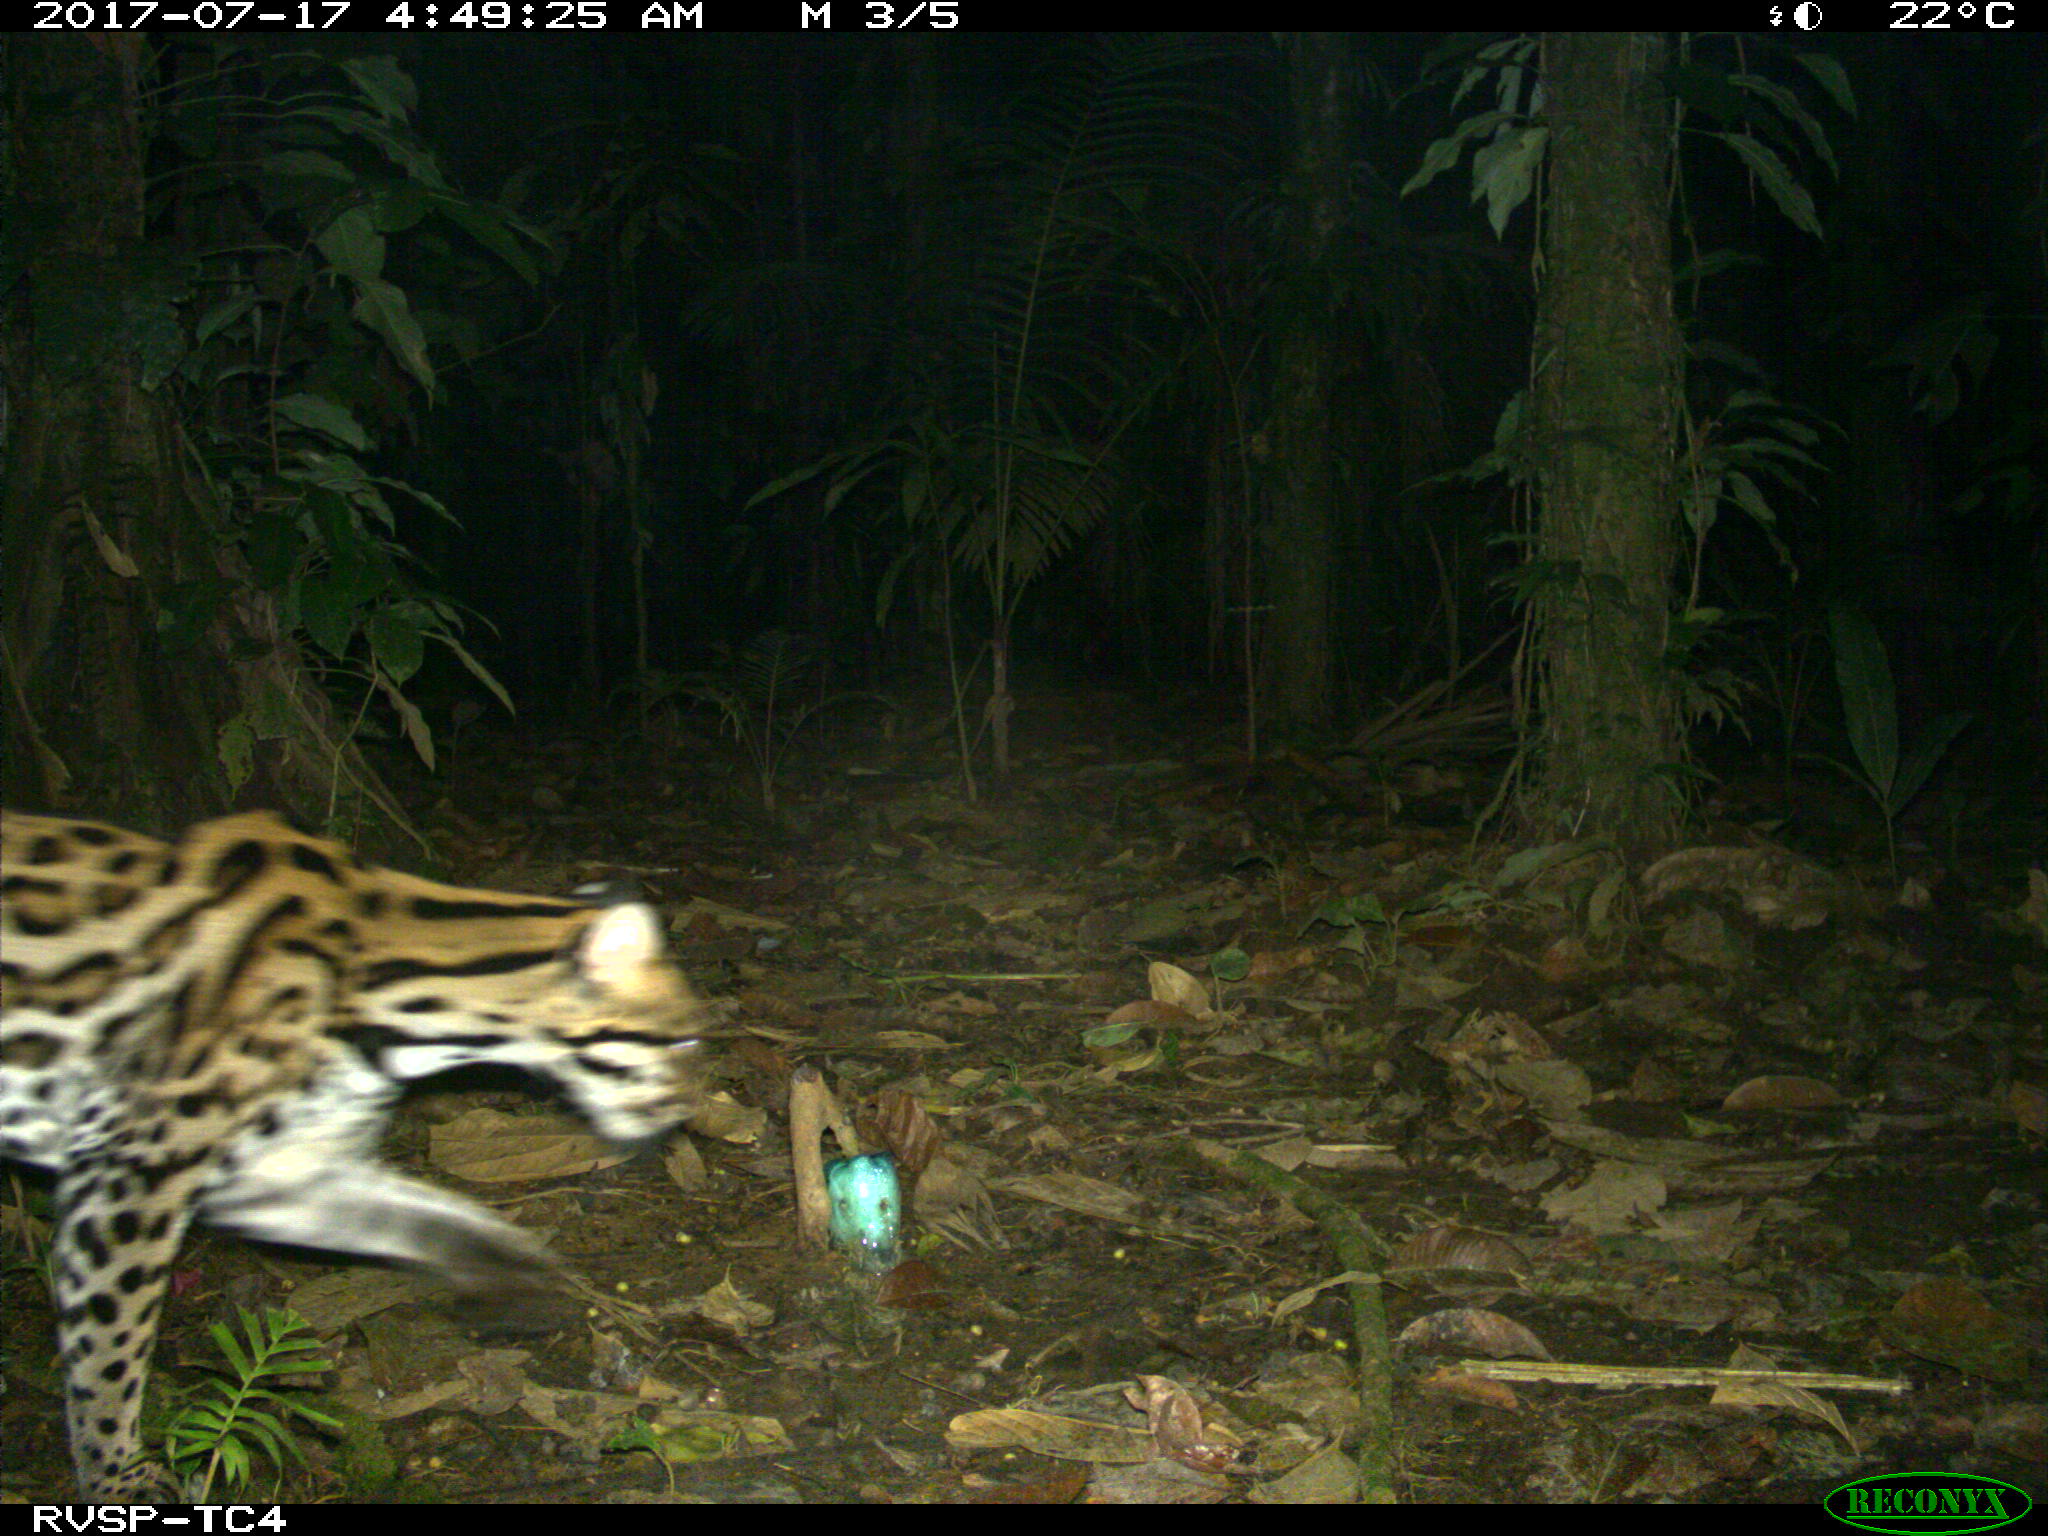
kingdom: Animalia
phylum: Chordata
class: Mammalia
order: Carnivora
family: Felidae
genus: Leopardus
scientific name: Leopardus pardalis
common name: Ocelot
